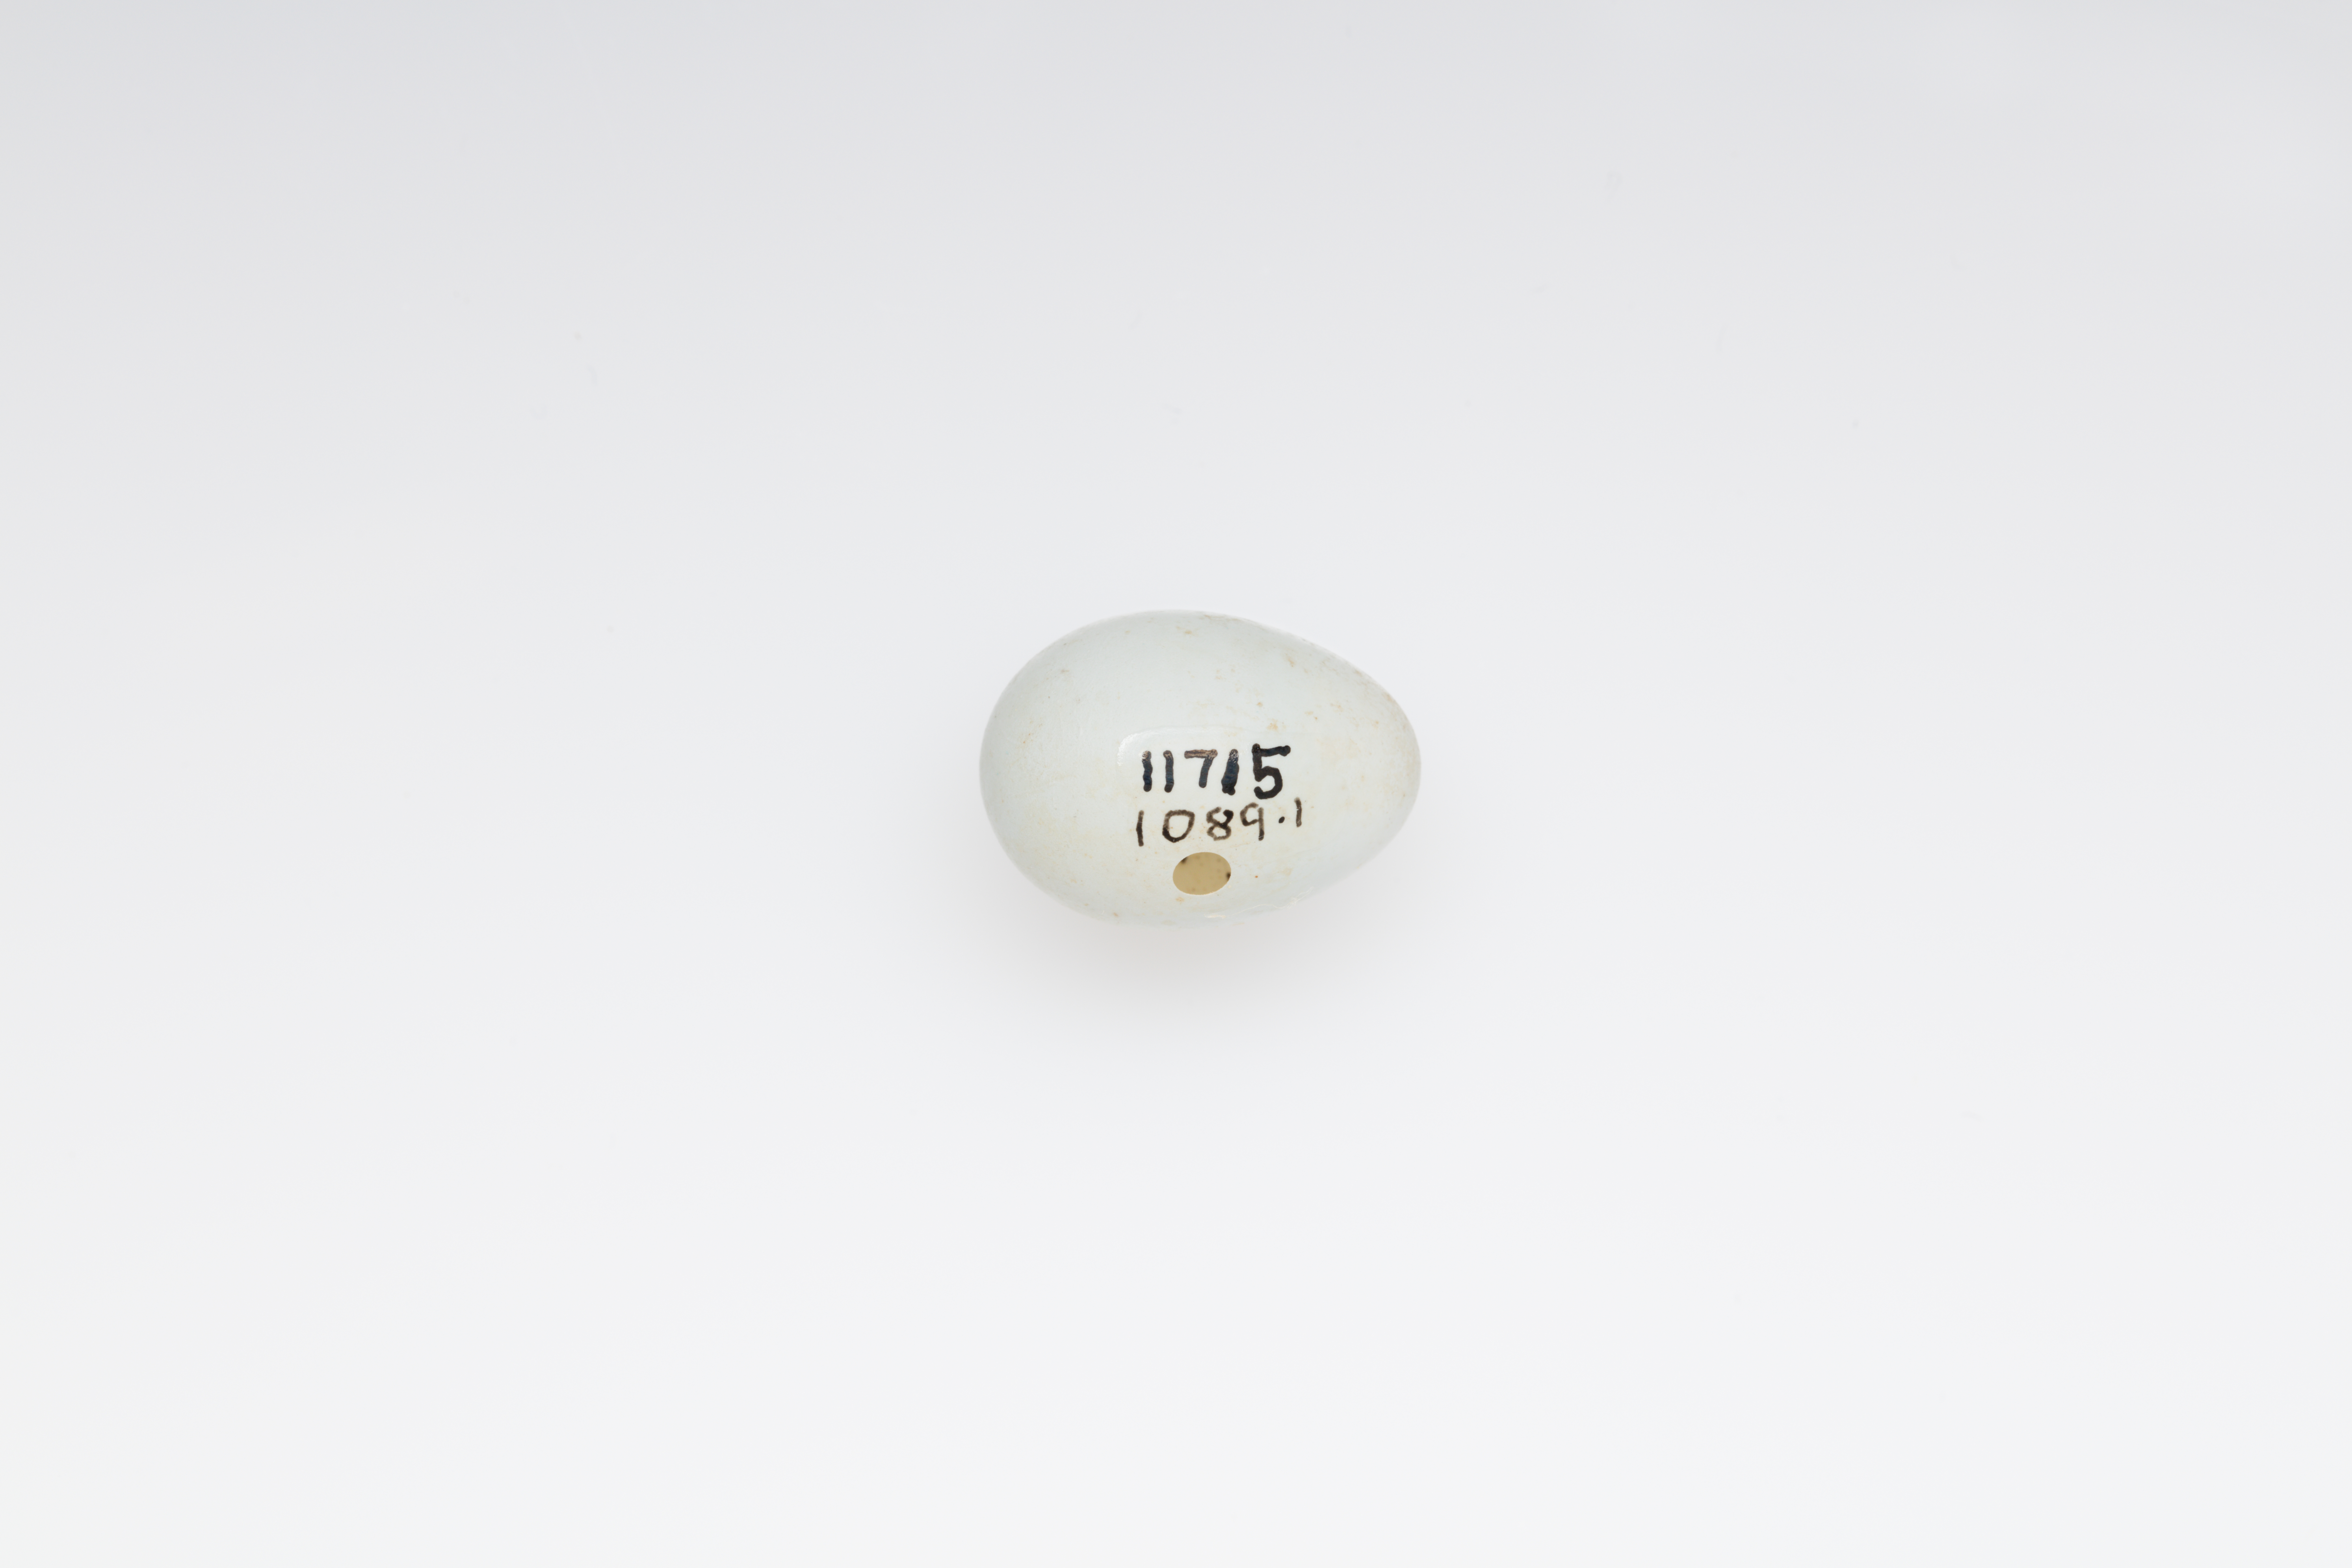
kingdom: Animalia
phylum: Chordata
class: Aves
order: Passeriformes
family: Zosteropidae
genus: Zosterops
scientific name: Zosterops albogularis
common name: White-chested white-eye
